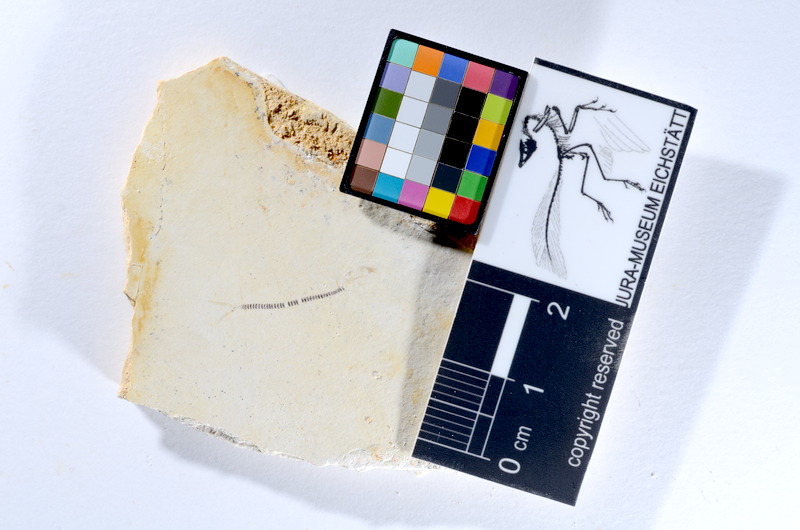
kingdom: Animalia
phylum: Chordata
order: Salmoniformes
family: Orthogonikleithridae
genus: Orthogonikleithrus
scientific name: Orthogonikleithrus hoelli
